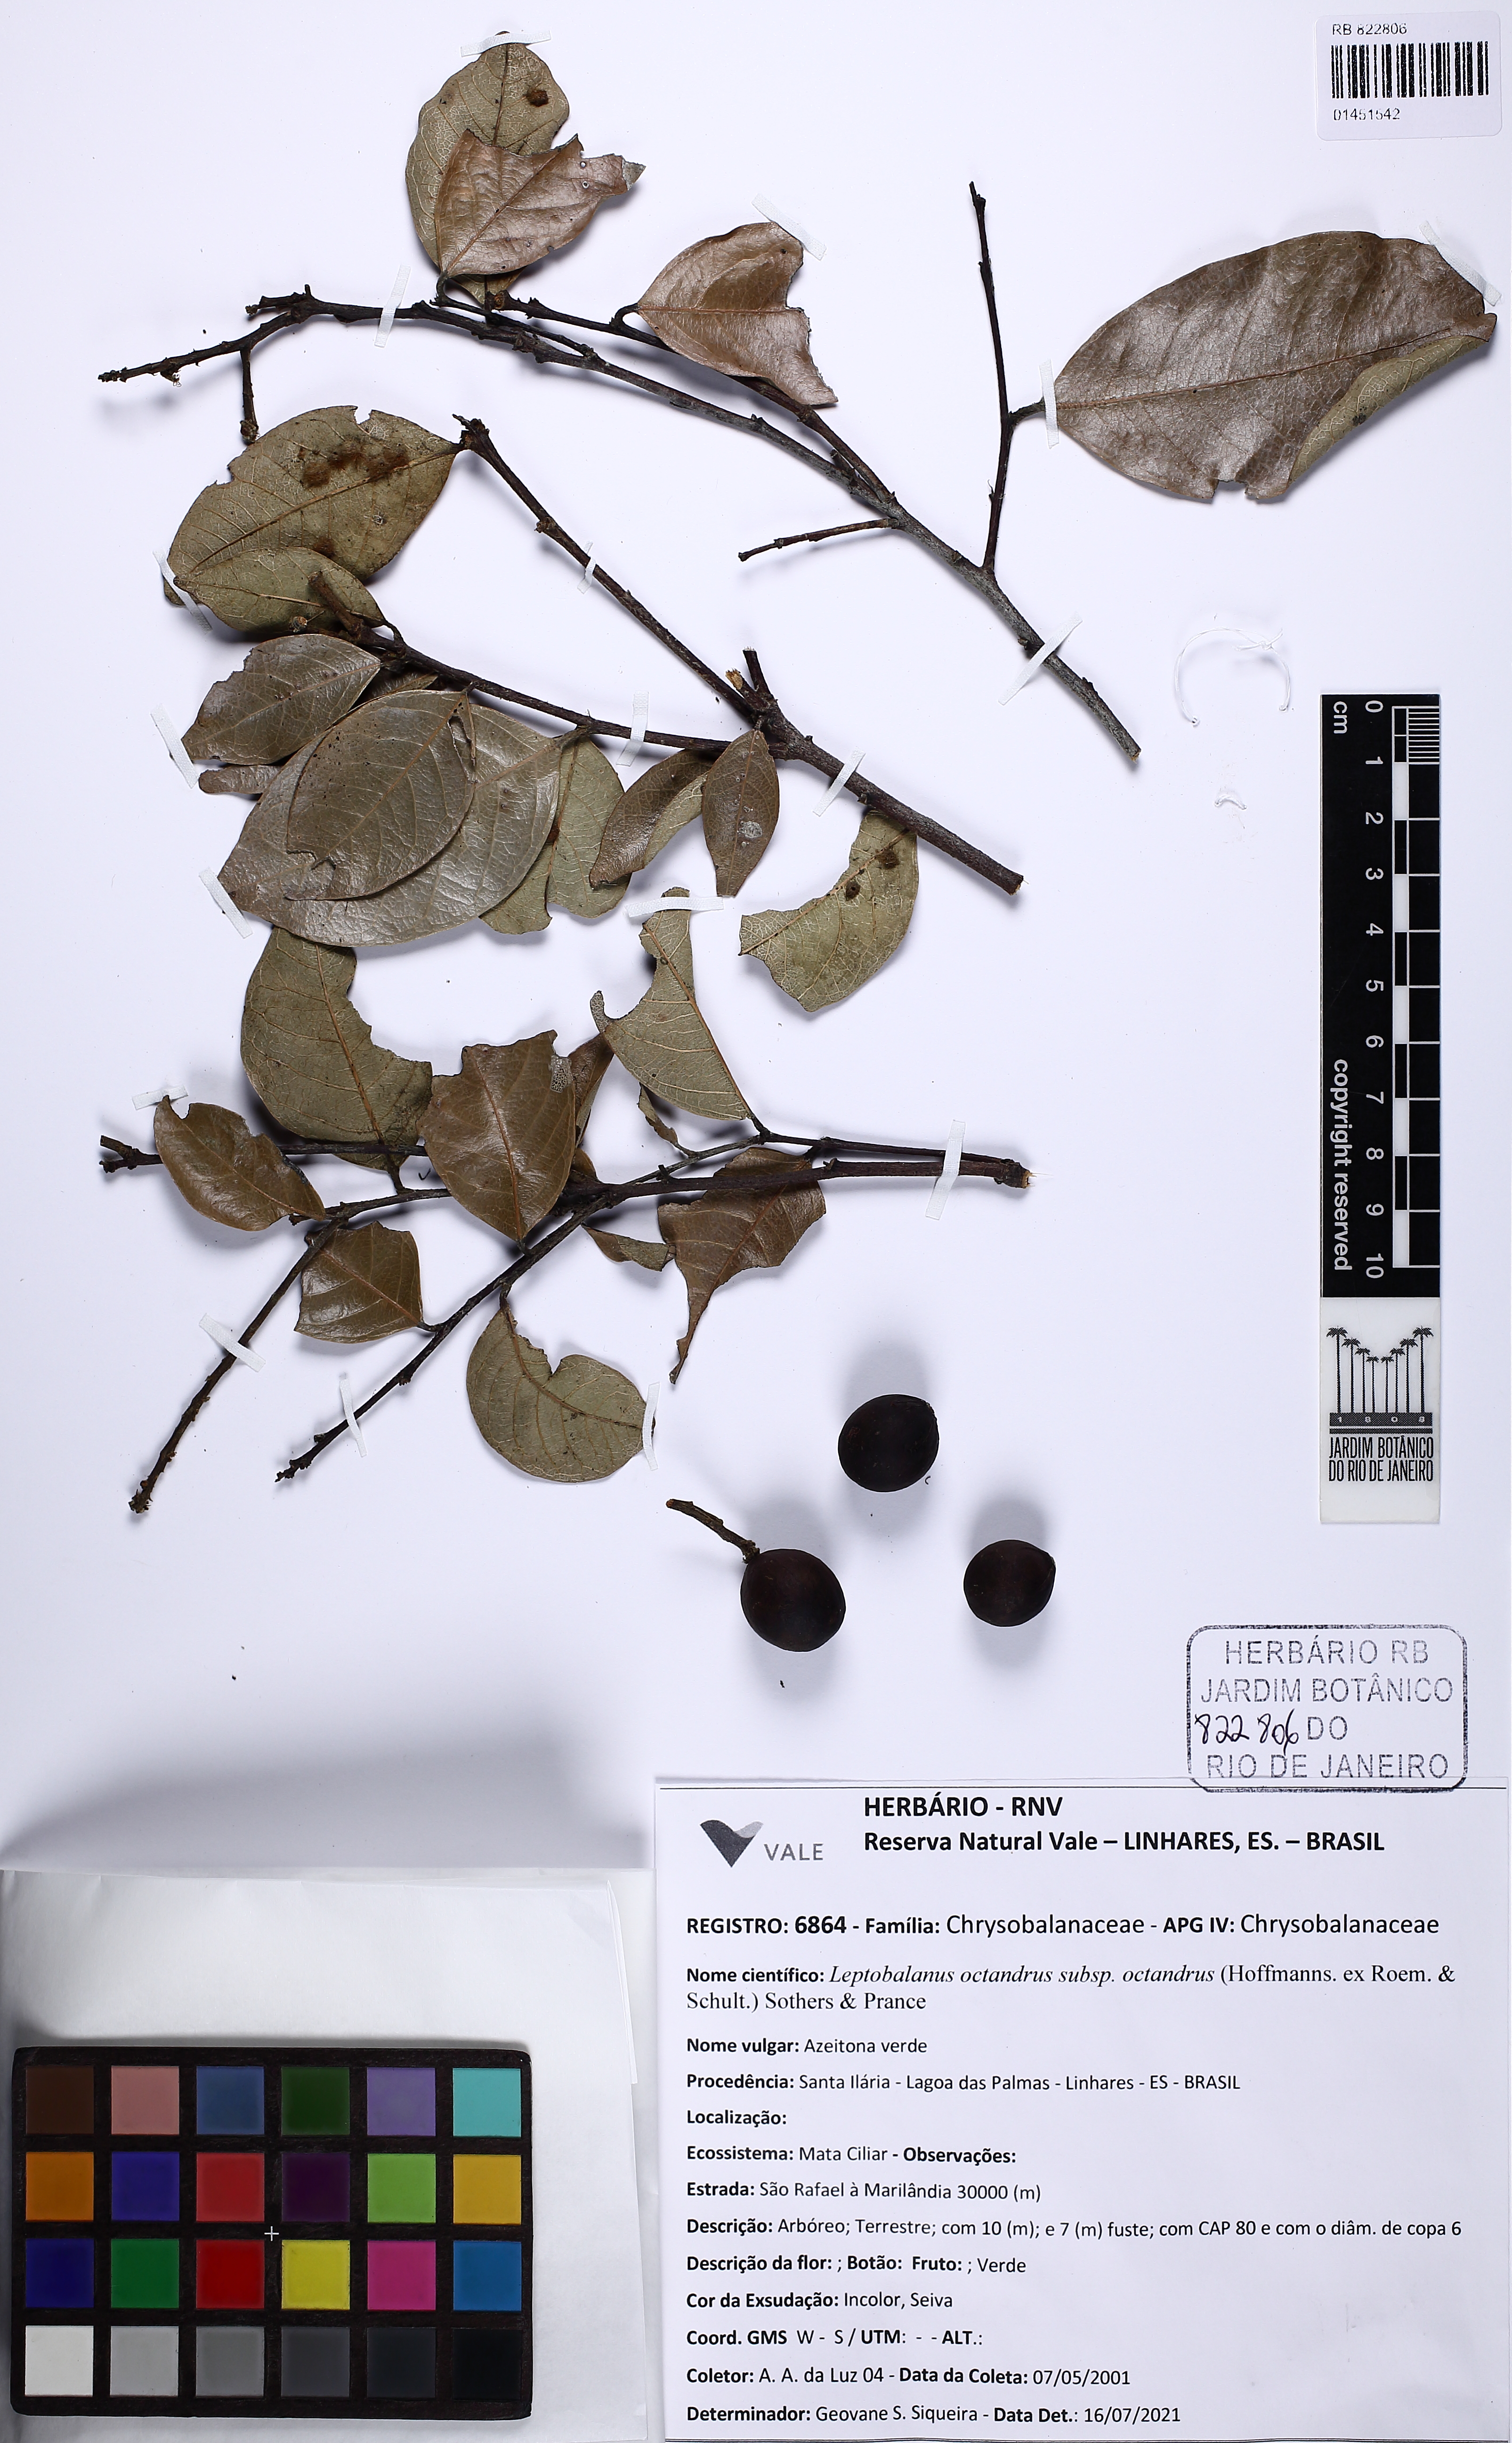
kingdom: Plantae
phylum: Tracheophyta
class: Magnoliopsida
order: Malpighiales
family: Chrysobalanaceae
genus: Leptobalanus
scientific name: Leptobalanus octandrus
